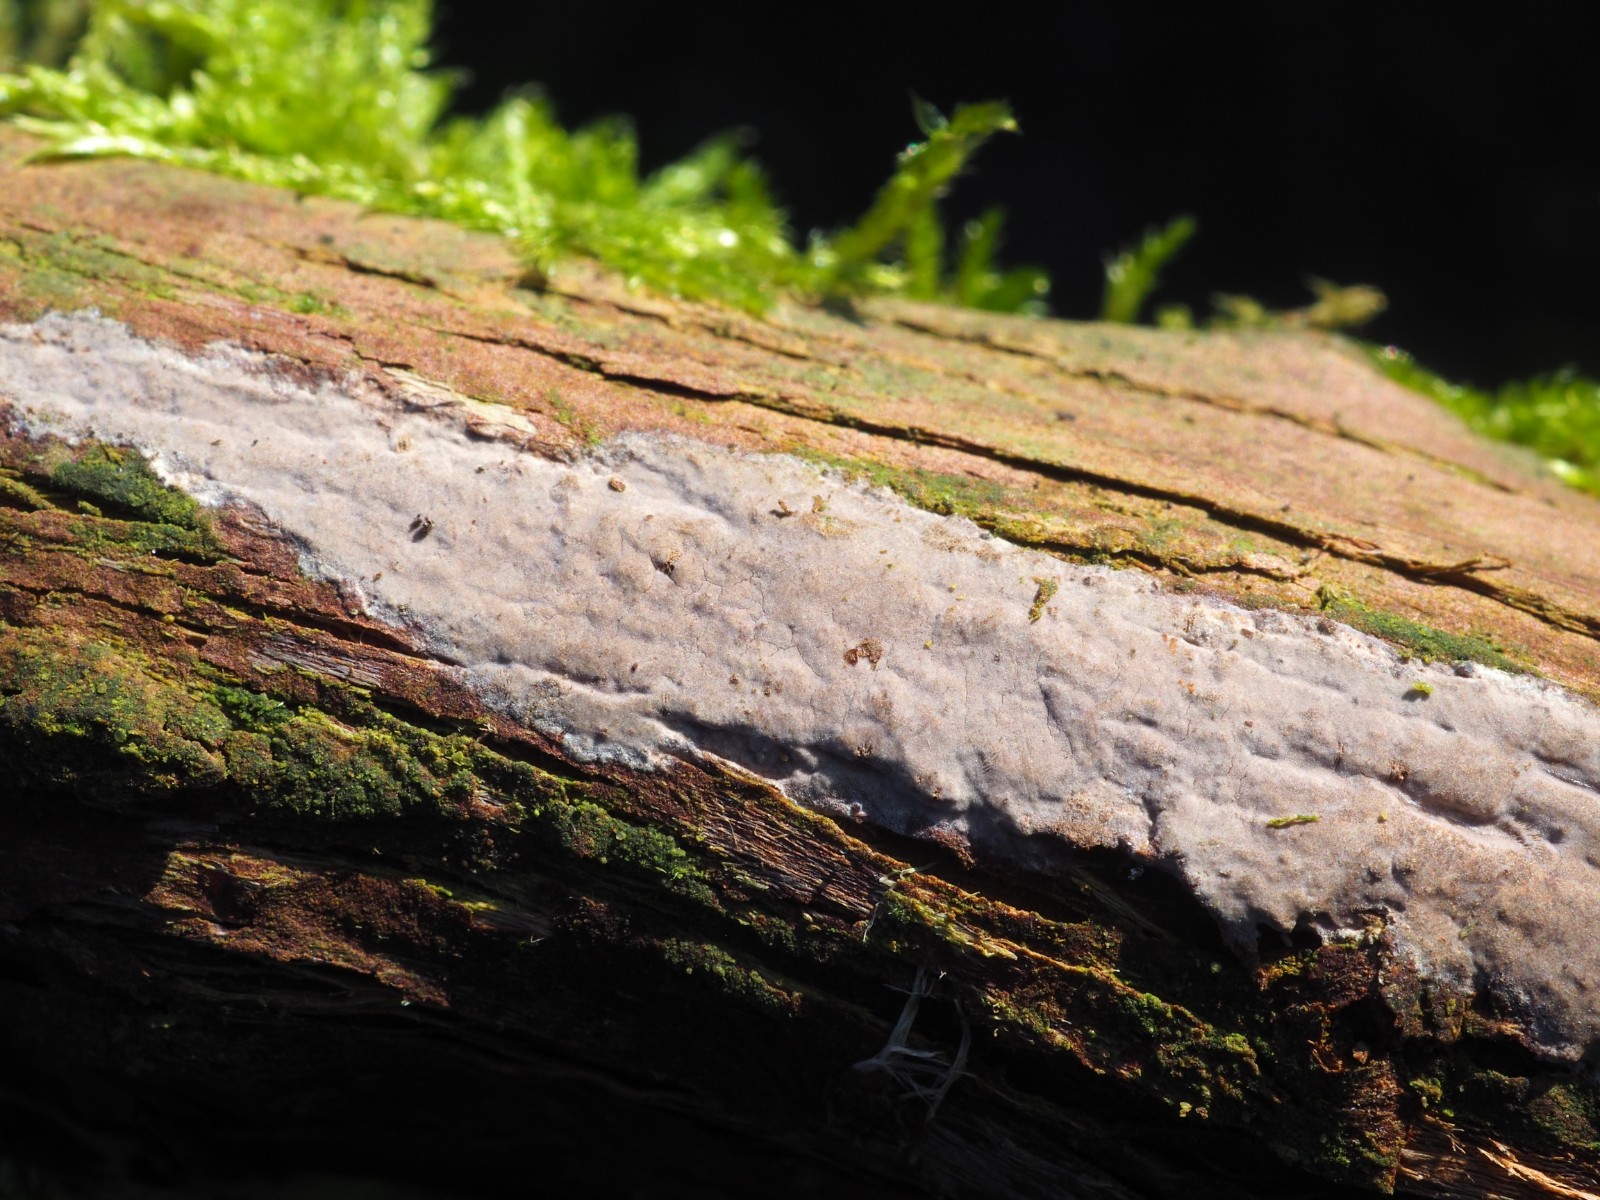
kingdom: Fungi
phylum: Basidiomycota
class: Agaricomycetes
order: Russulales
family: Echinodontiaceae
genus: Amylostereum
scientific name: Amylostereum laevigatum
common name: ene-lædersvamp
